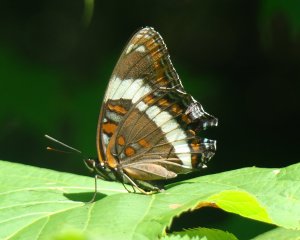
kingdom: Animalia
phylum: Arthropoda
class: Insecta
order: Lepidoptera
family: Nymphalidae
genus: Limenitis
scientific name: Limenitis arthemis
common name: Red-spotted Admiral
